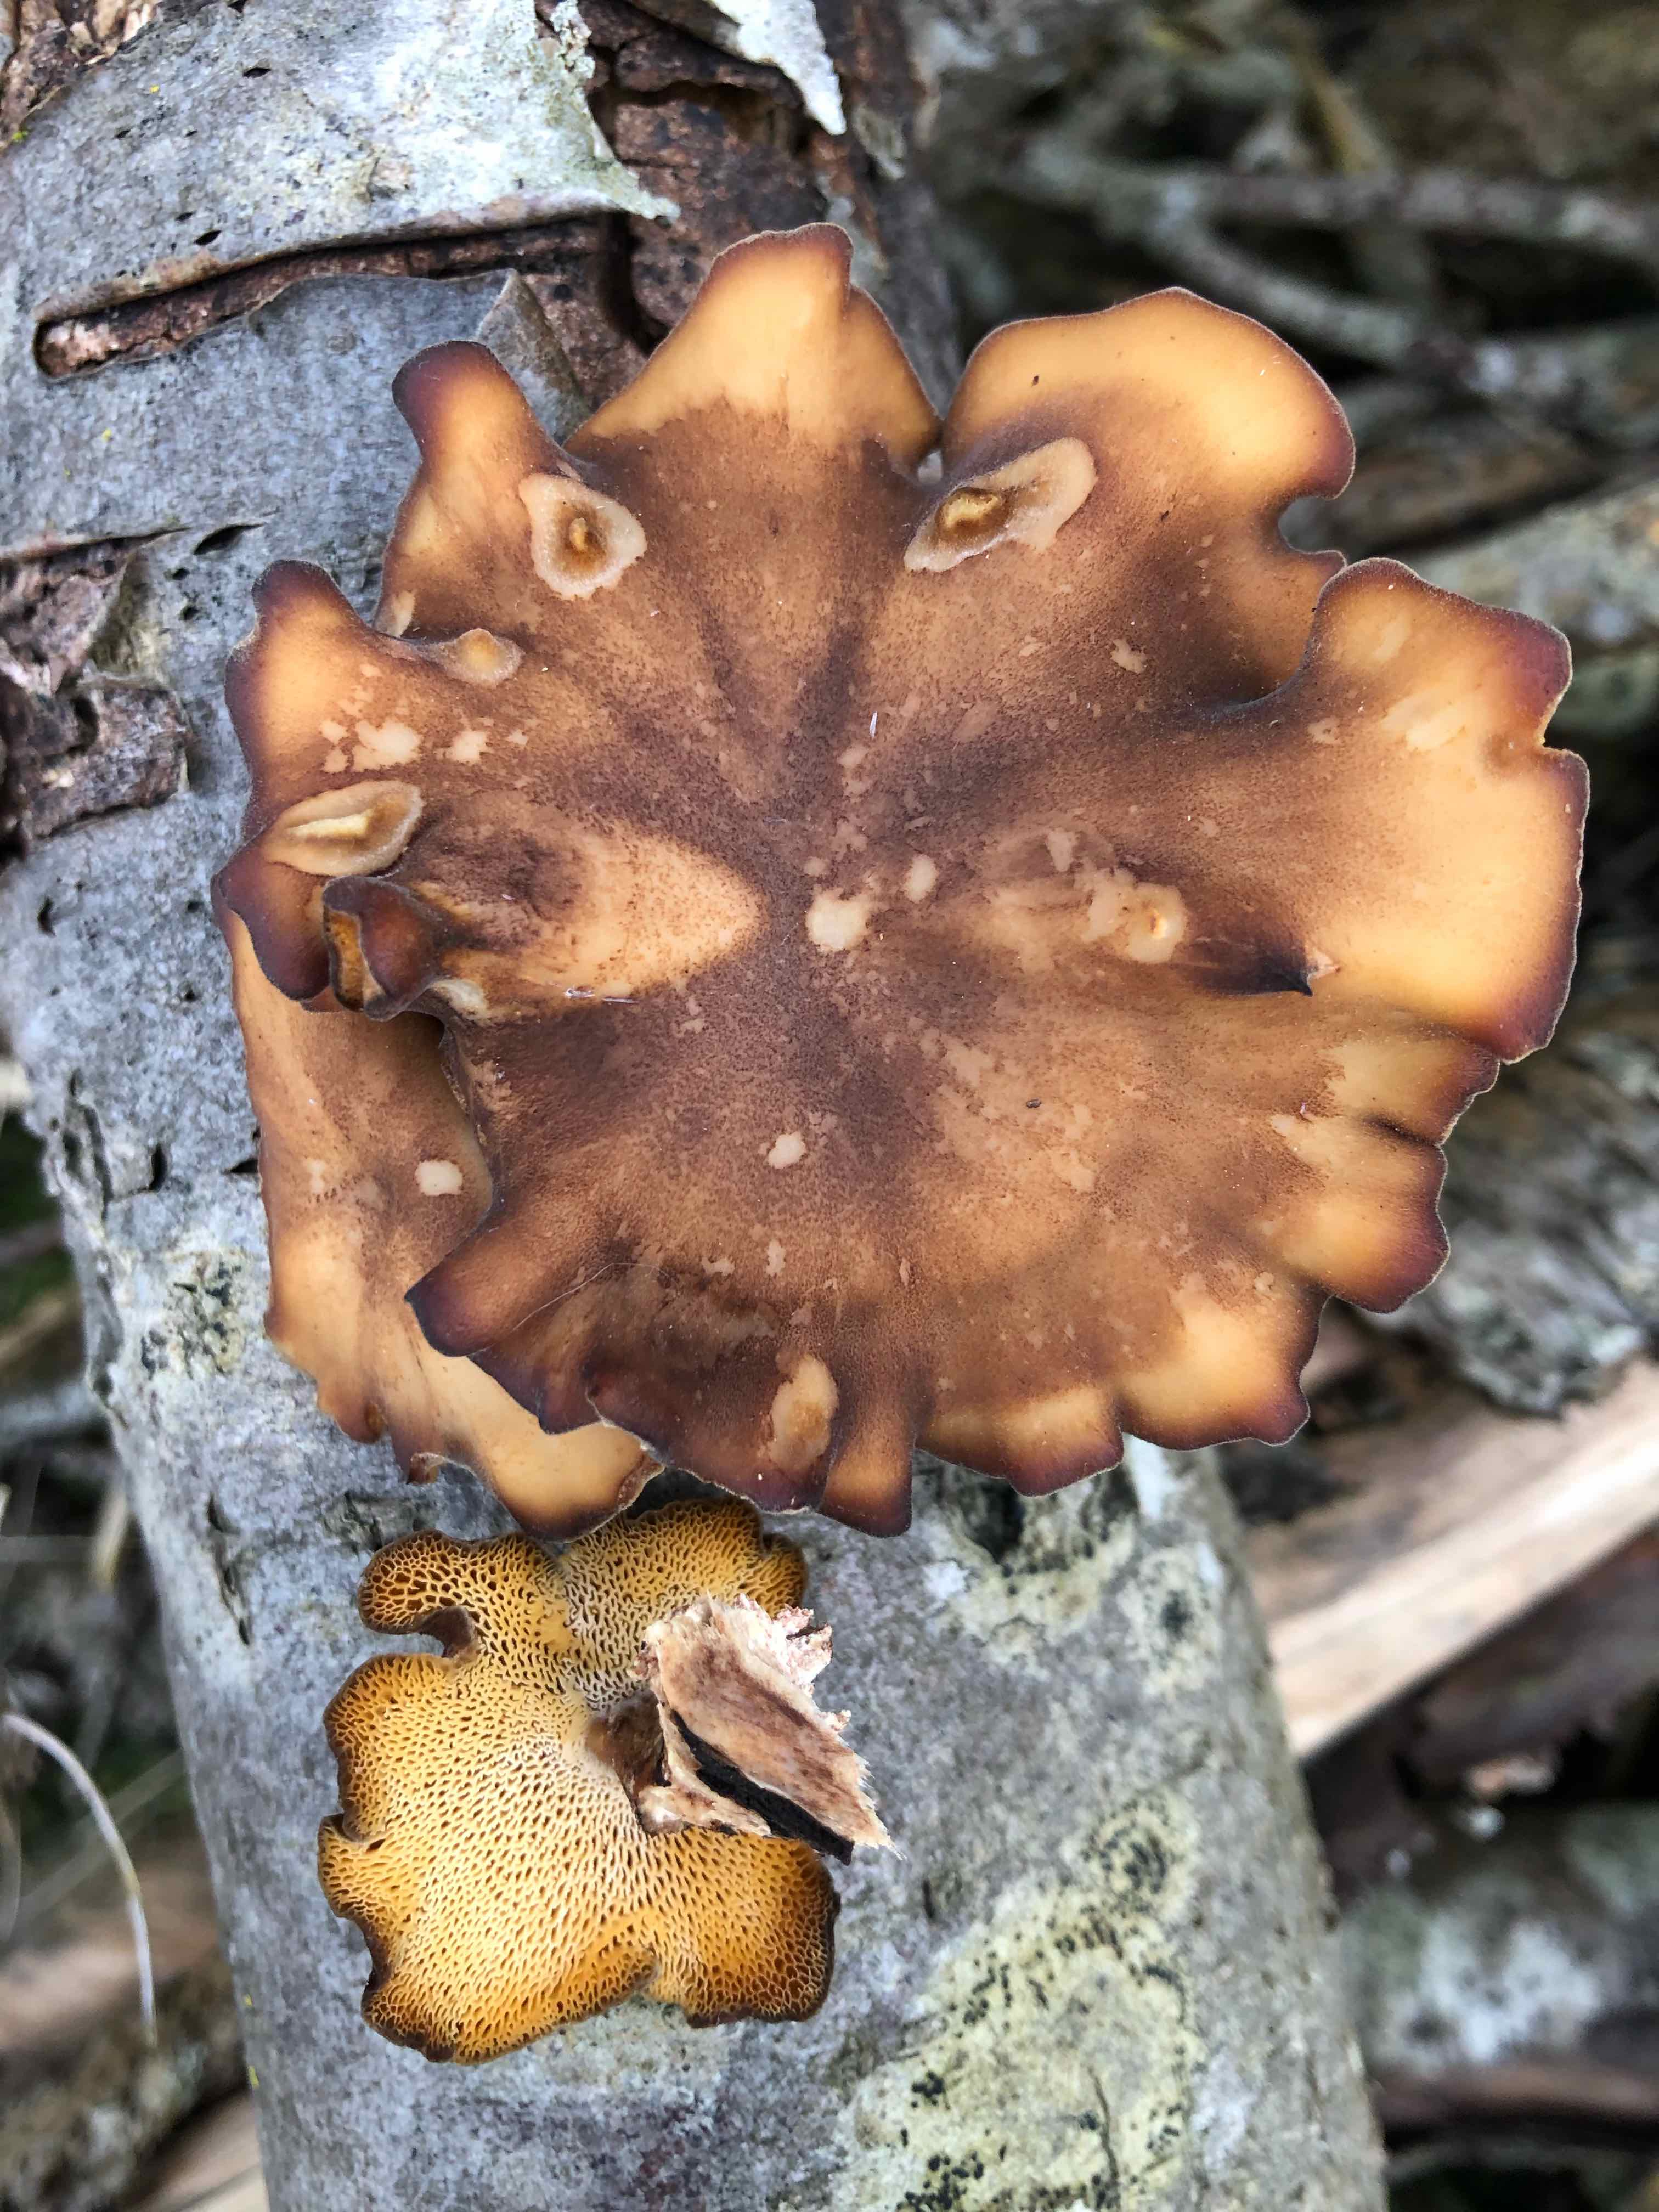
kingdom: Fungi
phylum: Basidiomycota
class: Agaricomycetes
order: Polyporales
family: Polyporaceae
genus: Lentinus
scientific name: Lentinus brumalis
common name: vinter-stilkporesvamp
